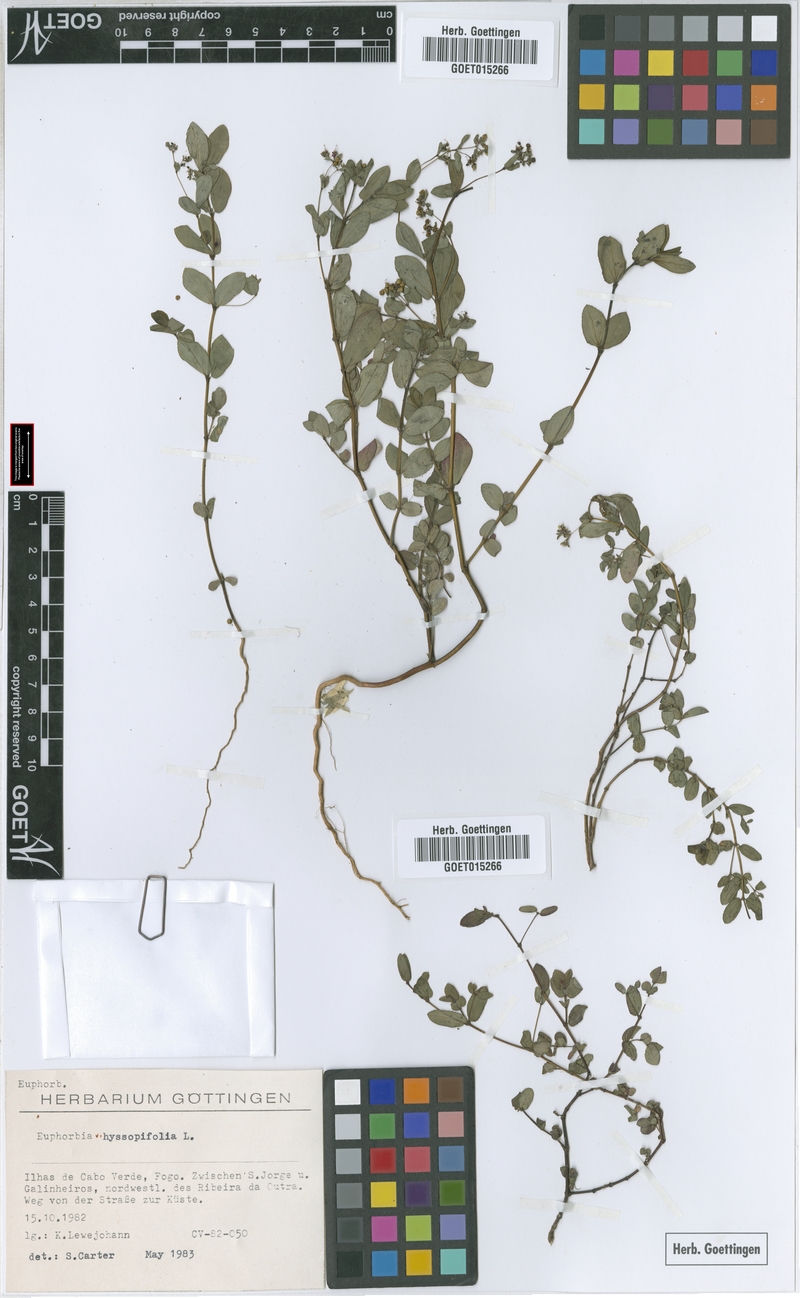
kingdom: Plantae
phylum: Tracheophyta
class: Magnoliopsida
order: Malpighiales
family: Euphorbiaceae
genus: Euphorbia
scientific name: Euphorbia hyssopifolia
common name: Hyssopleaf sandmat
